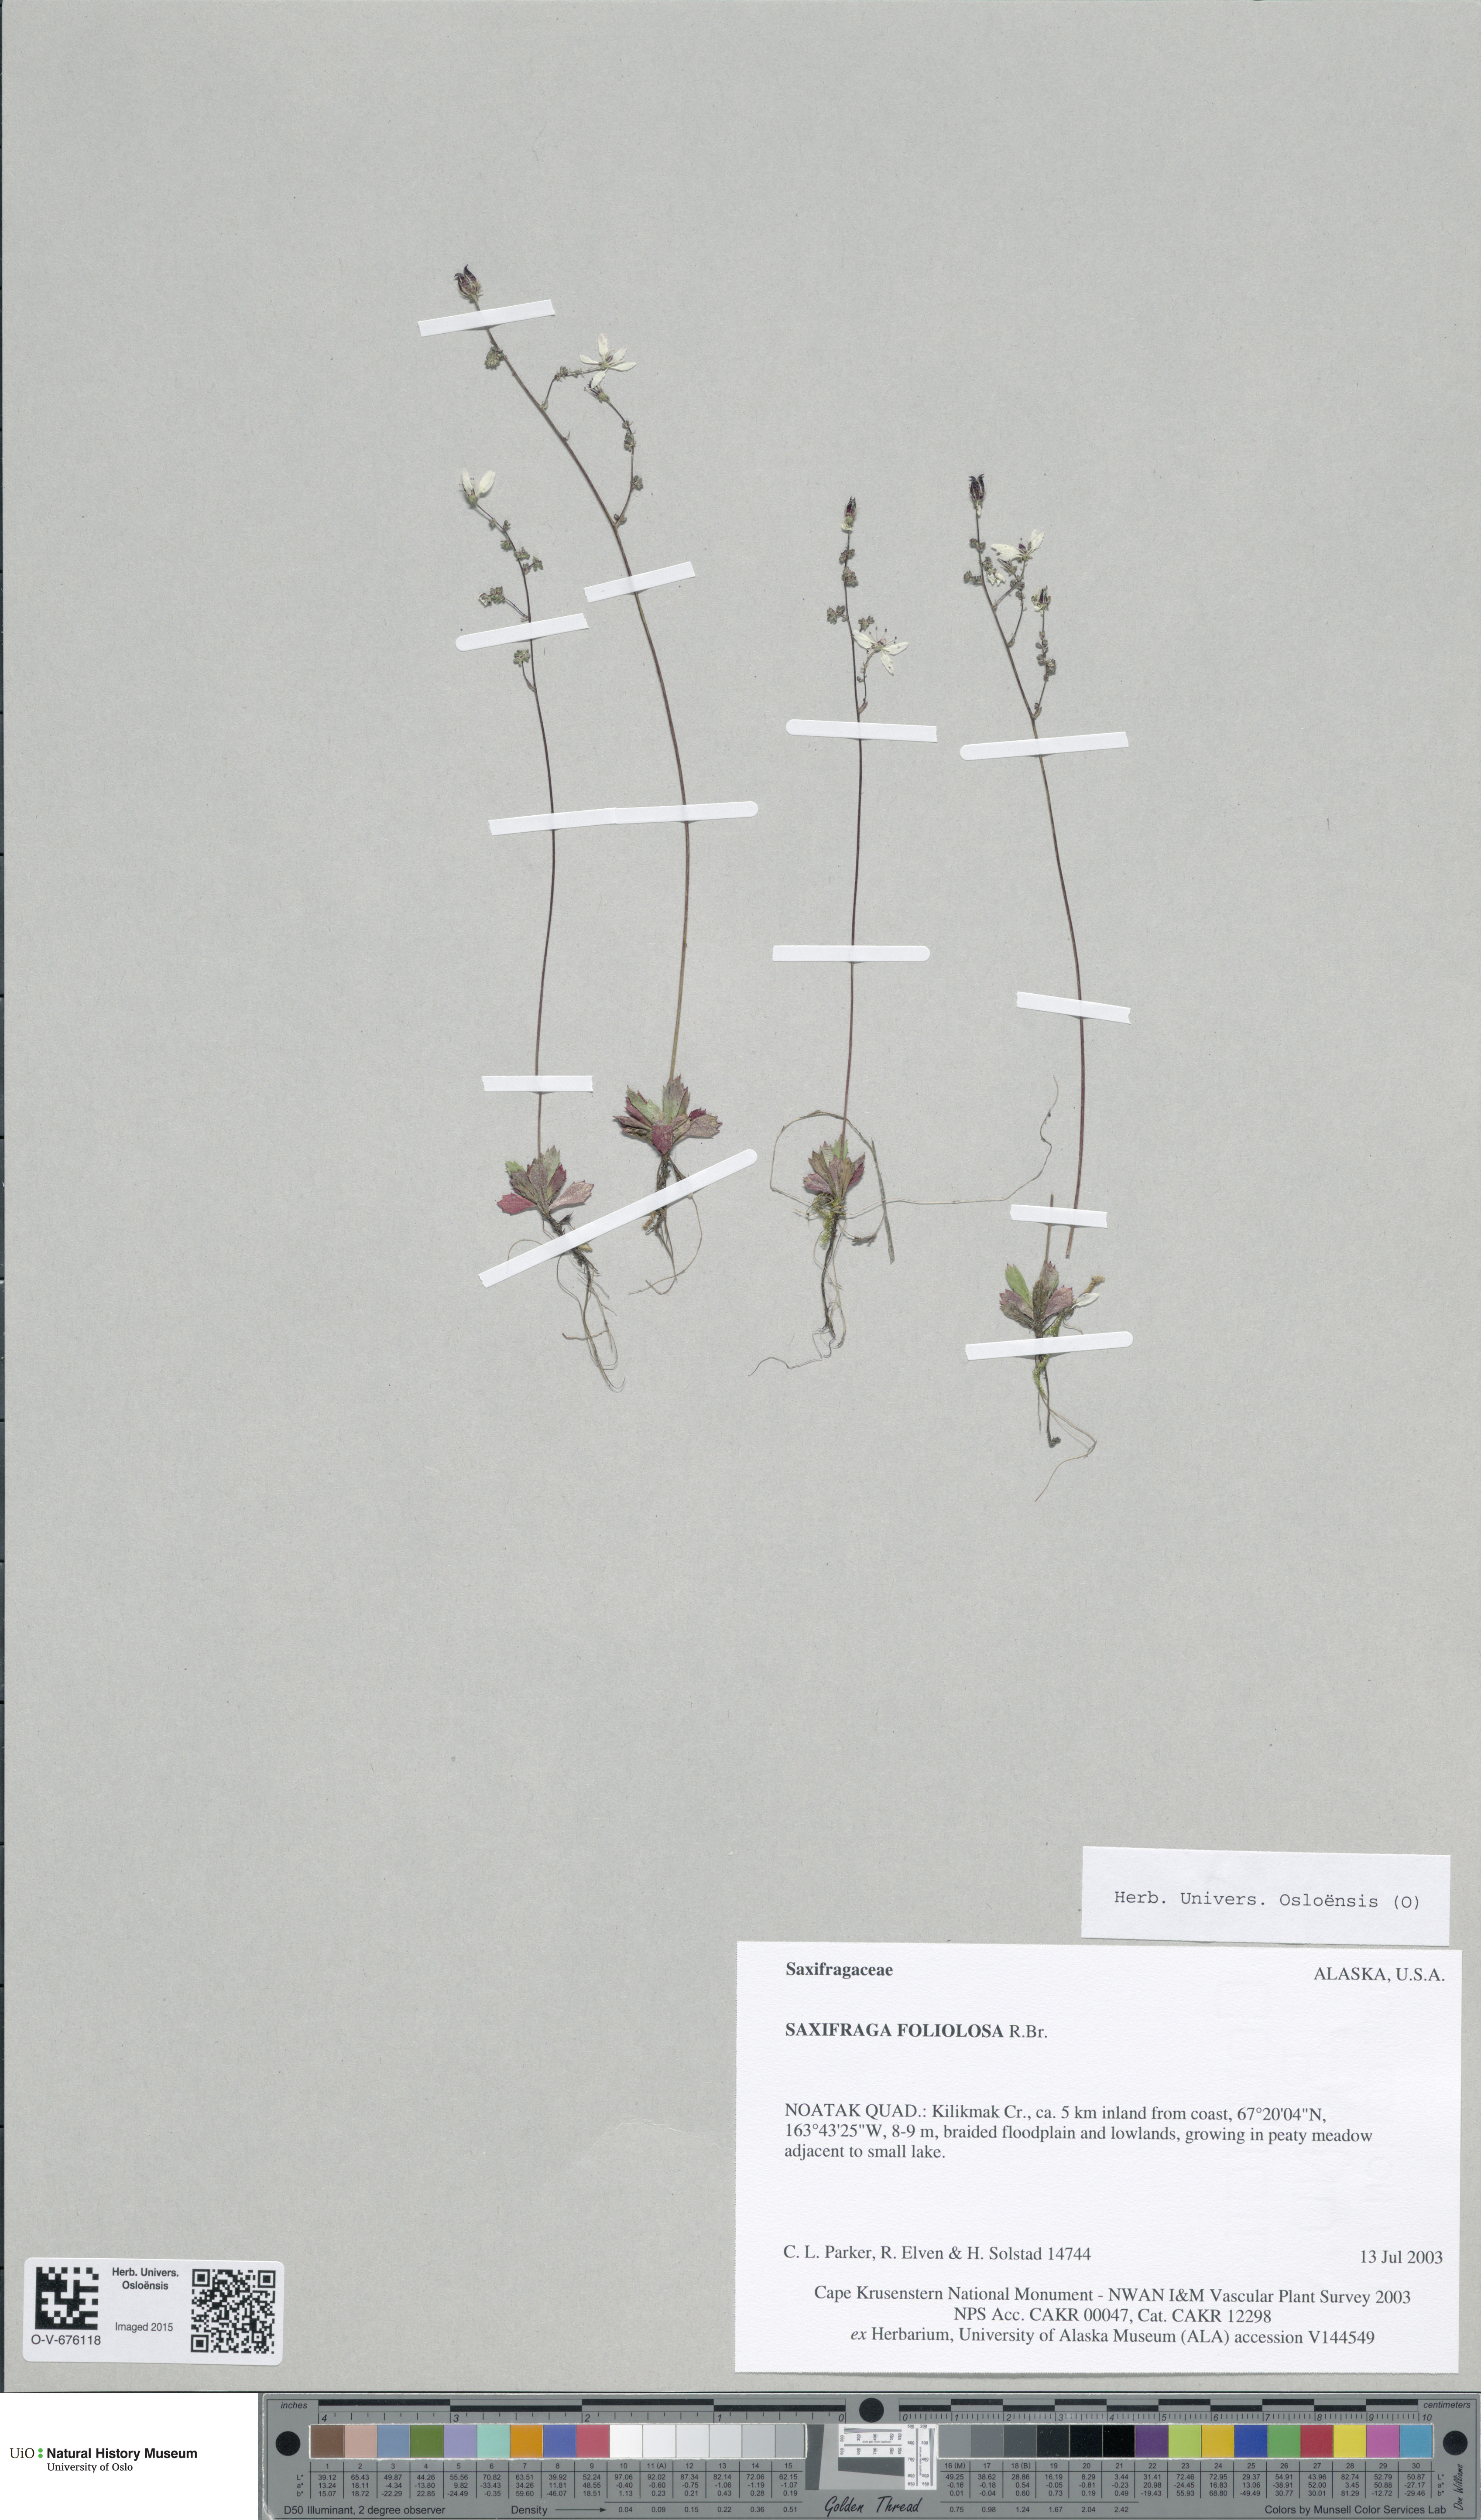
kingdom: Plantae
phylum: Tracheophyta
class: Magnoliopsida
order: Saxifragales
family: Saxifragaceae
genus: Micranthes
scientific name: Micranthes foliolosa
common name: Leafystem saxifrage
